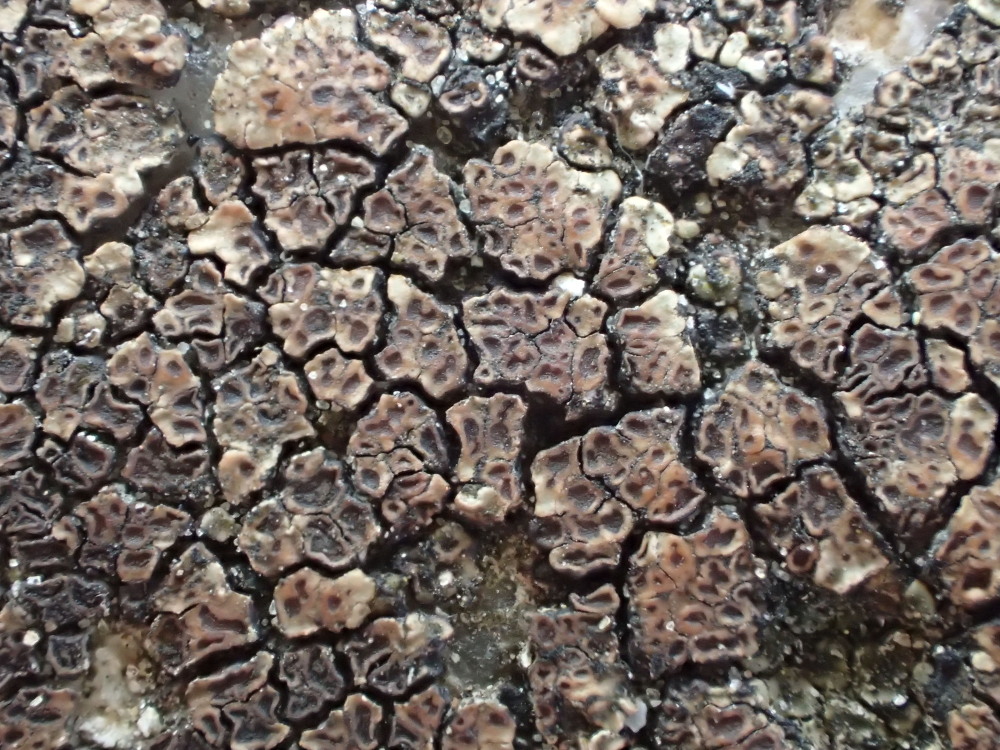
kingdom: Fungi
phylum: Ascomycota
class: Lecanoromycetes
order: Acarosporales
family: Acarosporaceae
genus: Acarospora
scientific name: Acarospora fuscata
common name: brun småsporelav
